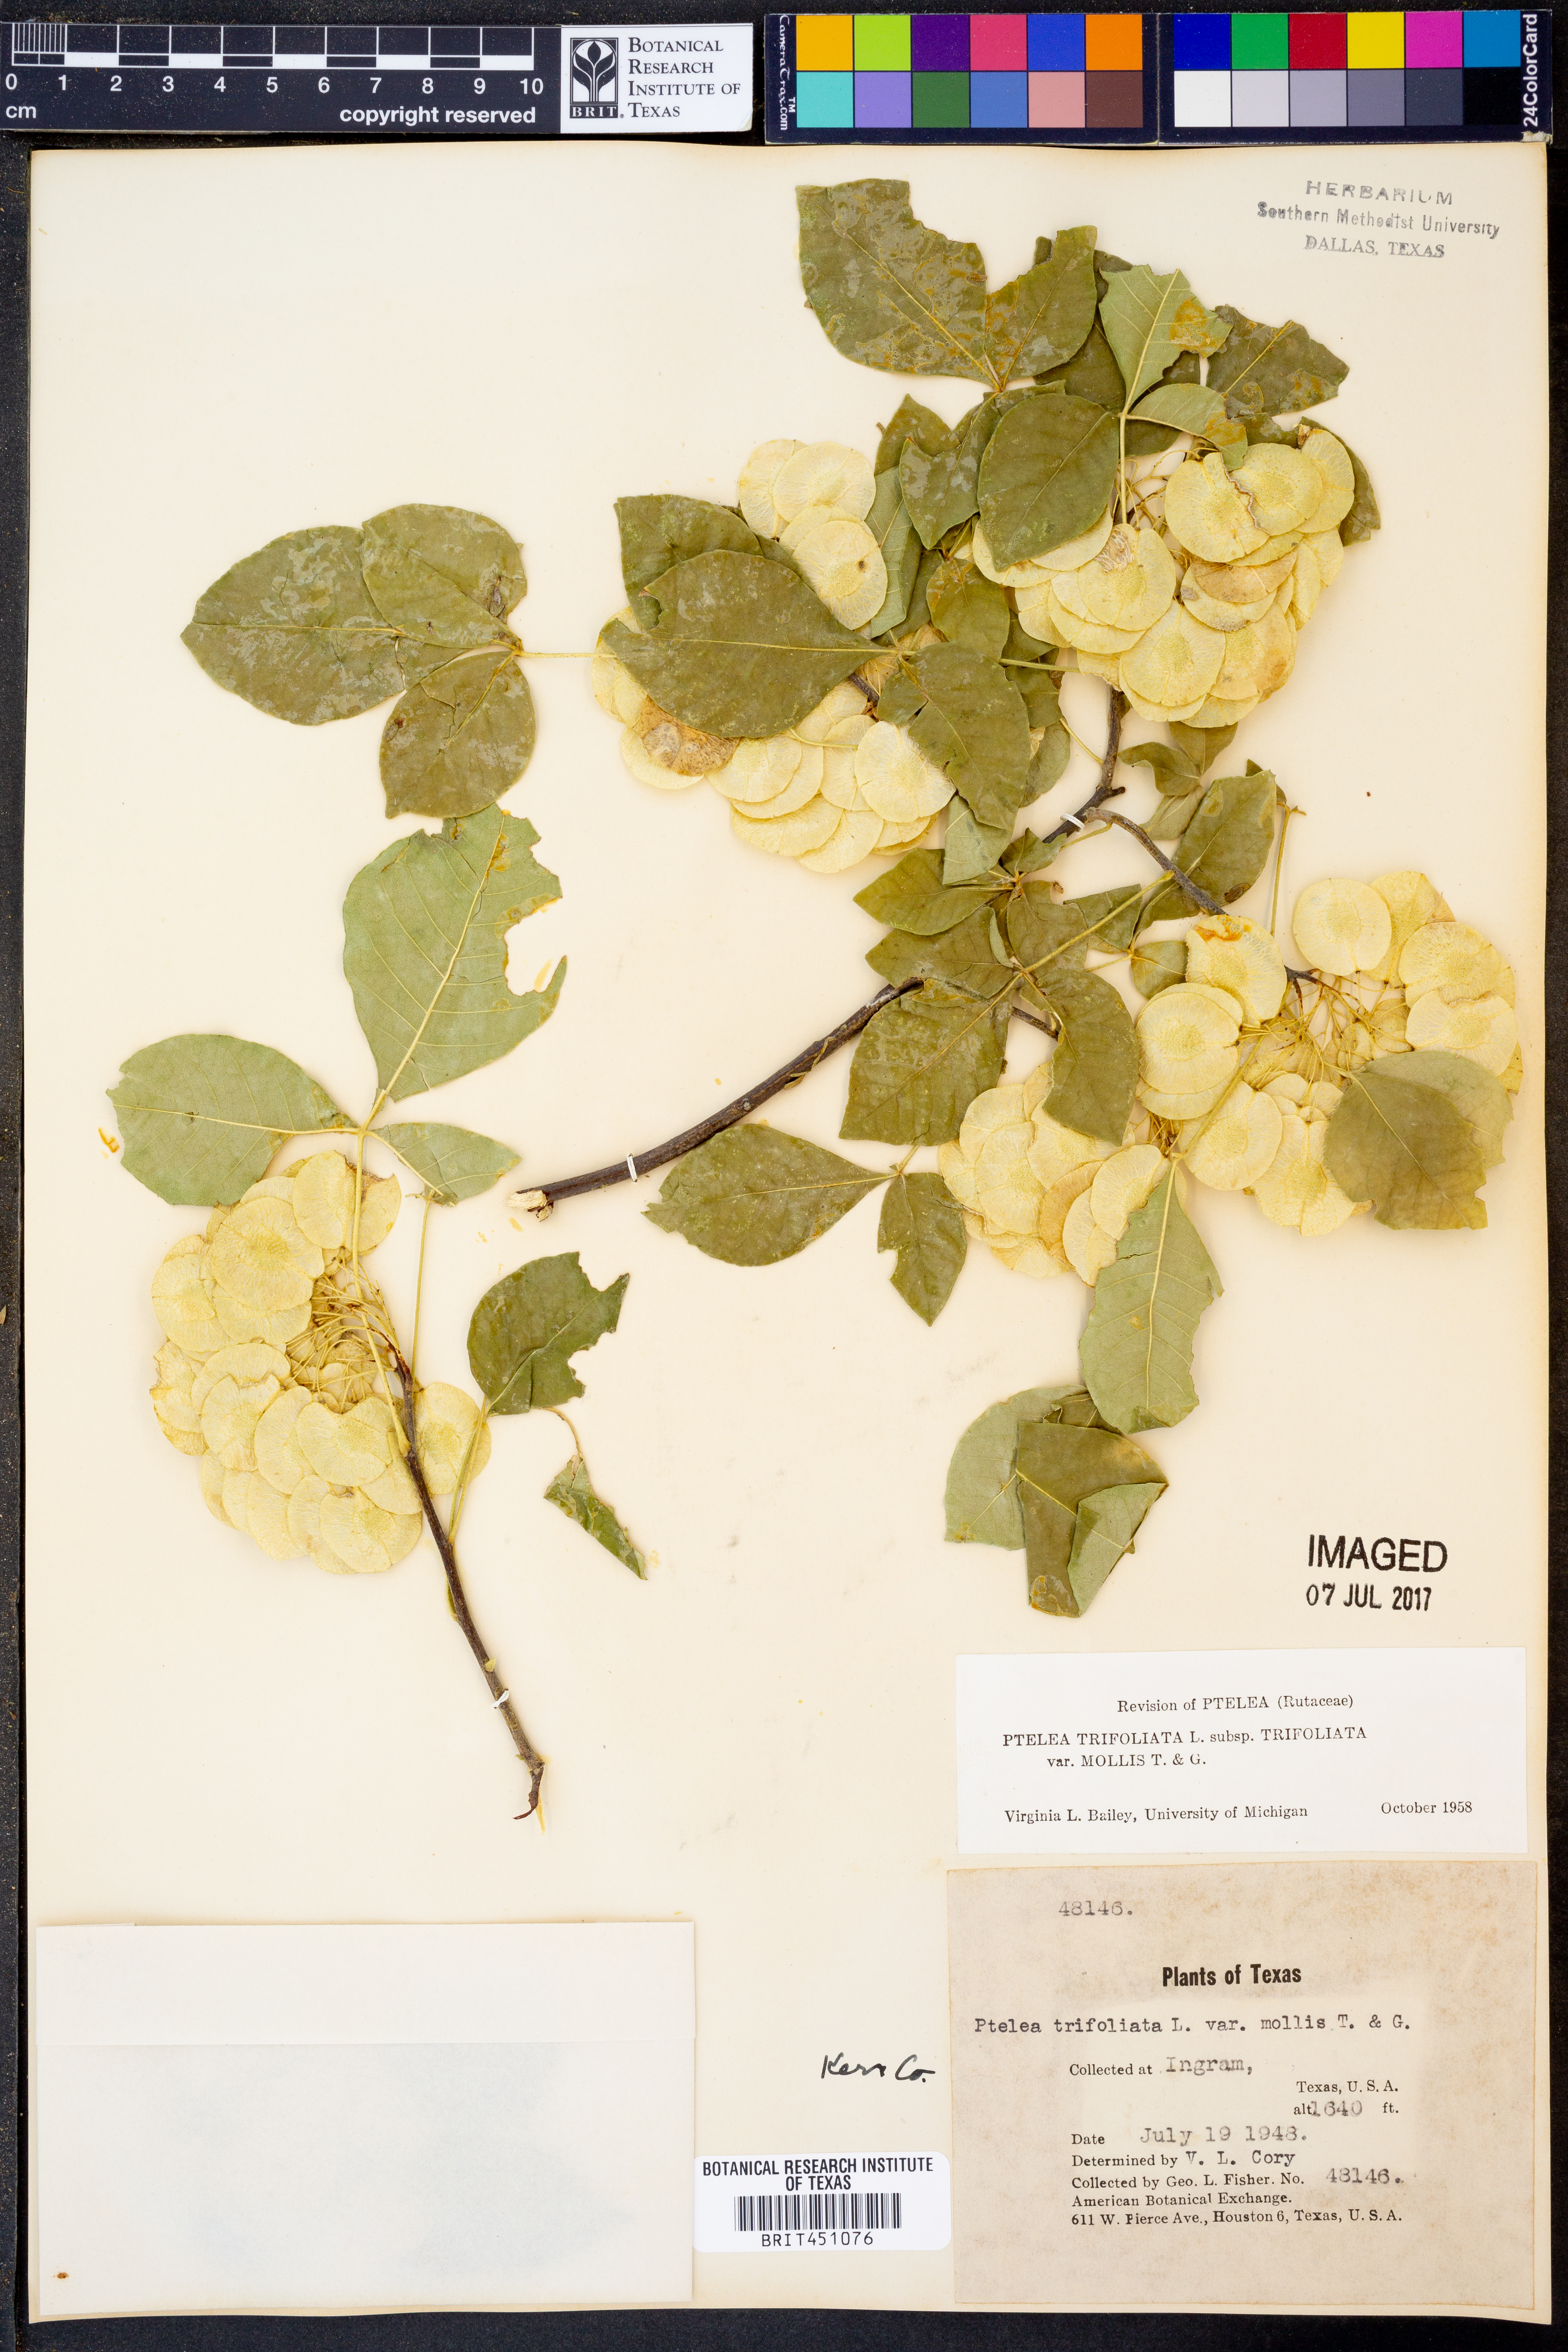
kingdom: Plantae
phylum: Tracheophyta
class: Magnoliopsida
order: Sapindales
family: Rutaceae
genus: Ptelea
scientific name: Ptelea trifoliata
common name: Common hop-tree
